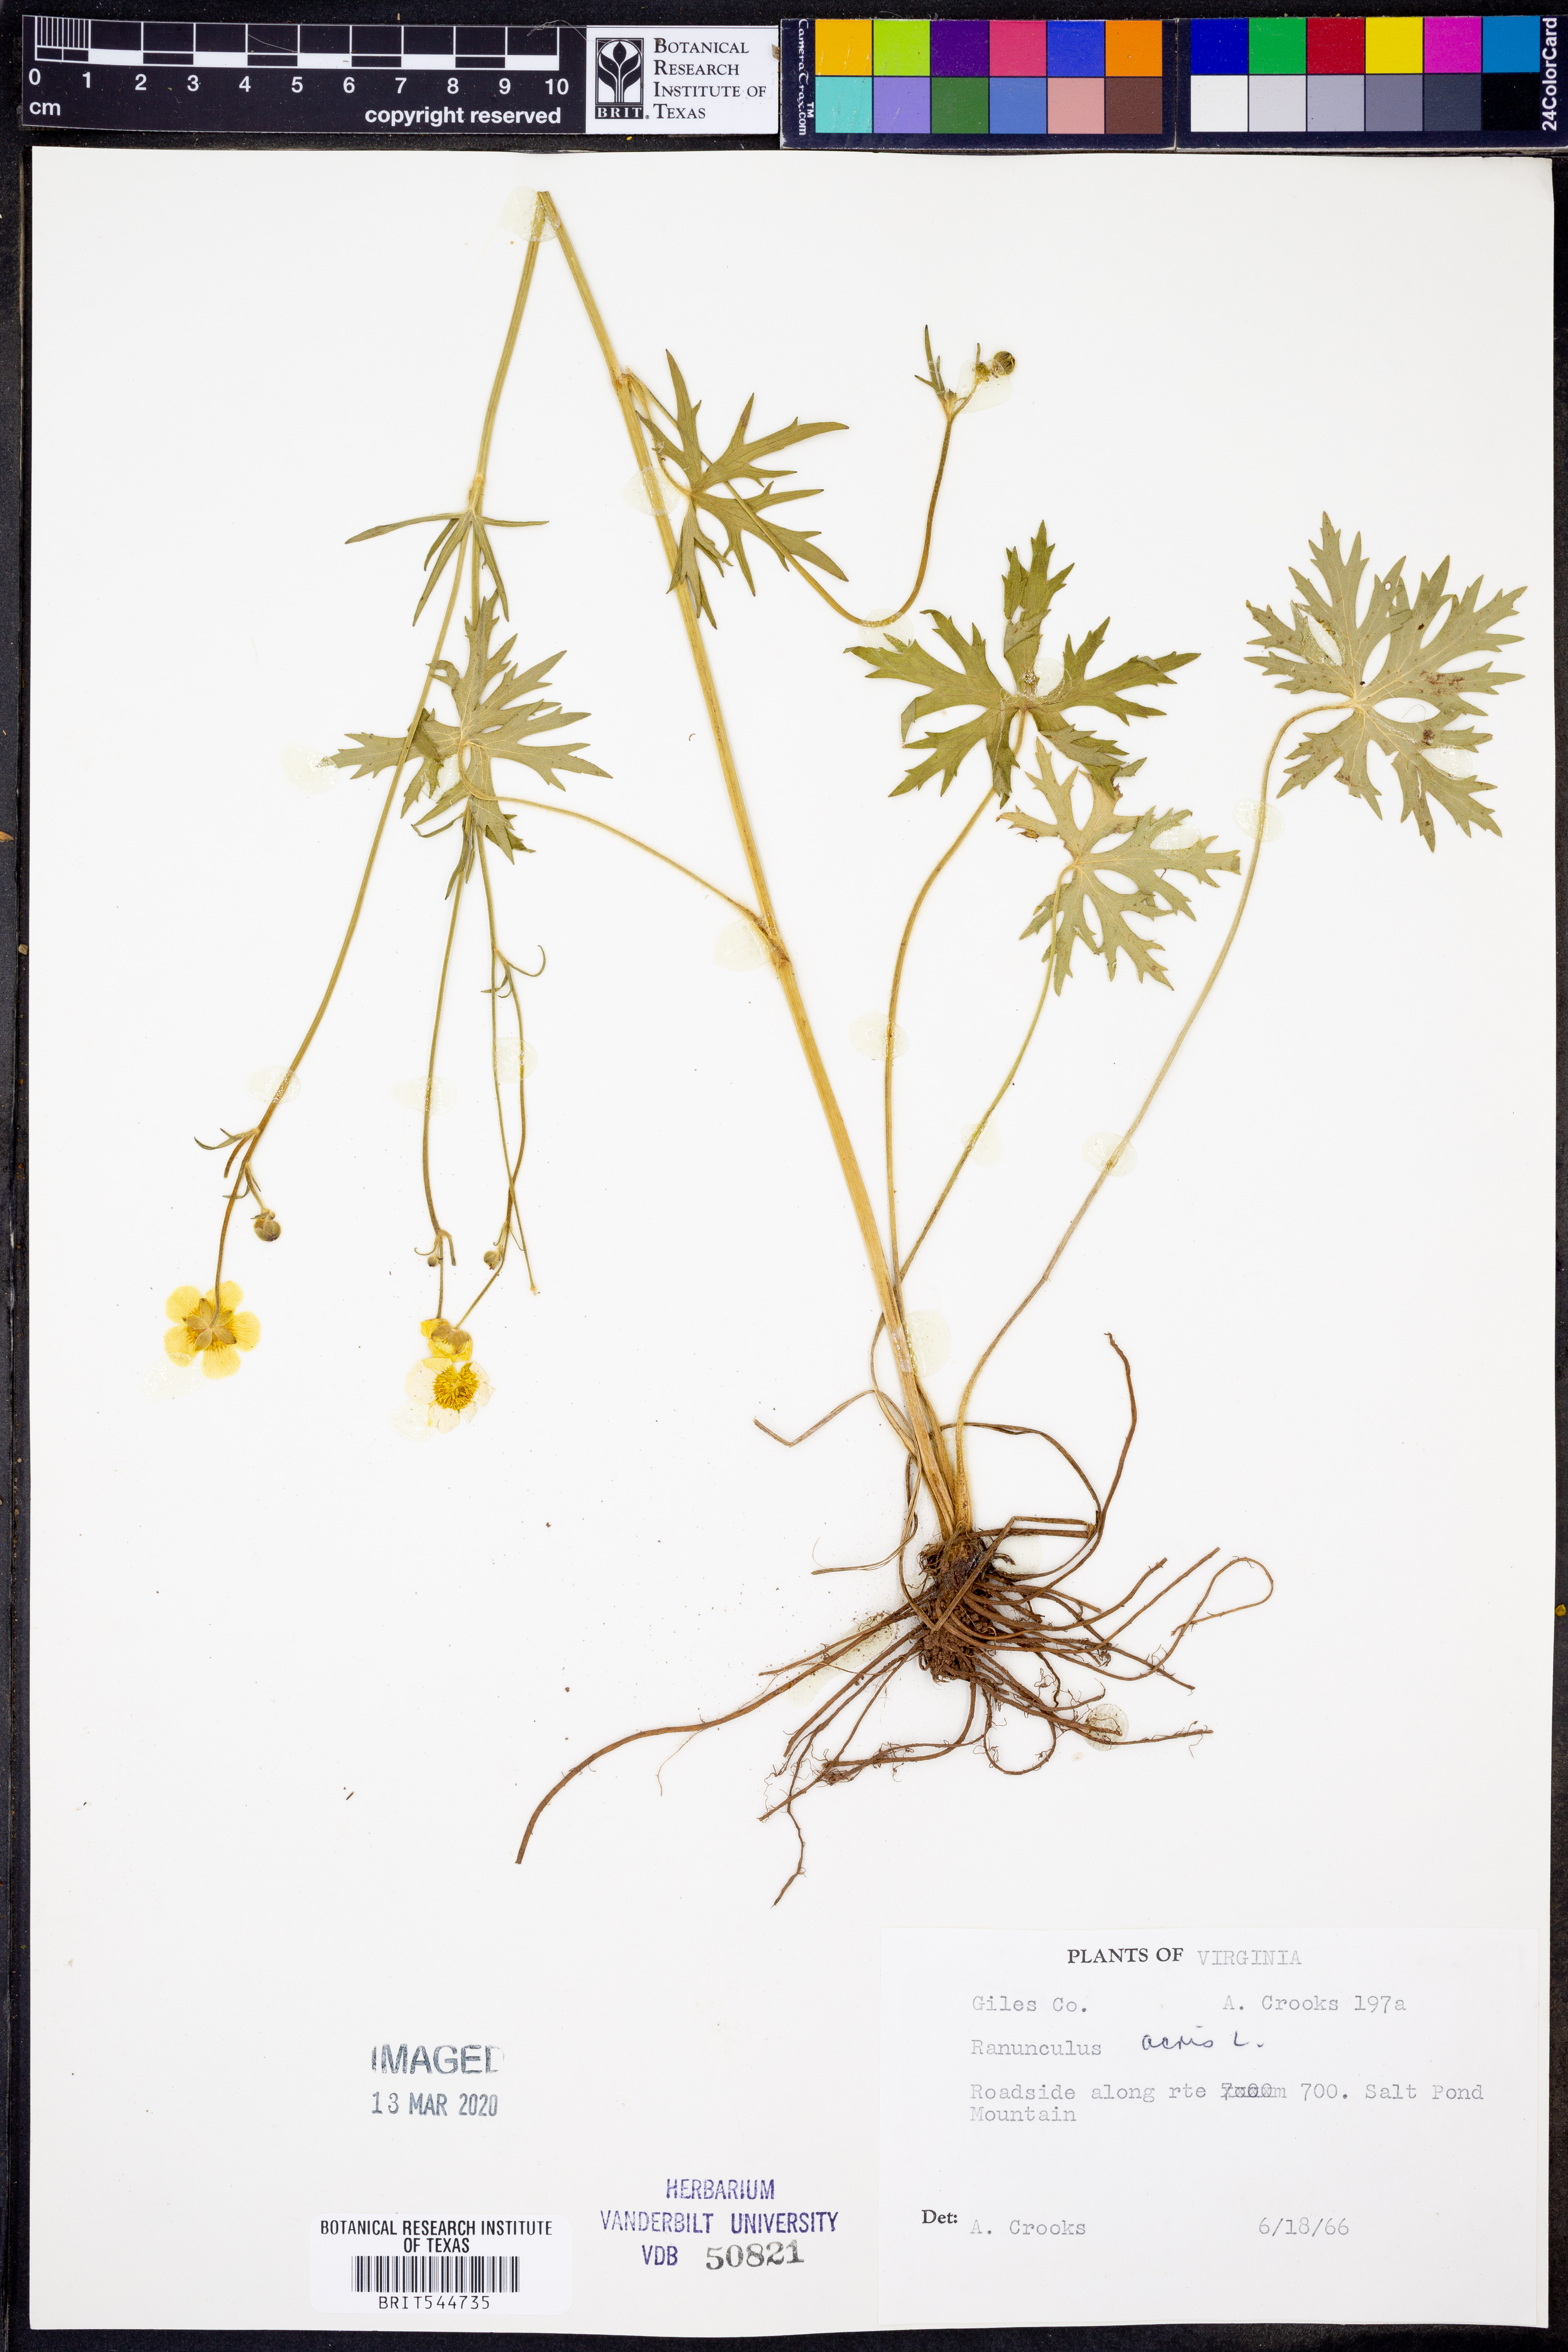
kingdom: Plantae
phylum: Tracheophyta
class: Magnoliopsida
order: Ranunculales
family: Ranunculaceae
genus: Ranunculus
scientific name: Ranunculus acris
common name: Meadow buttercup
